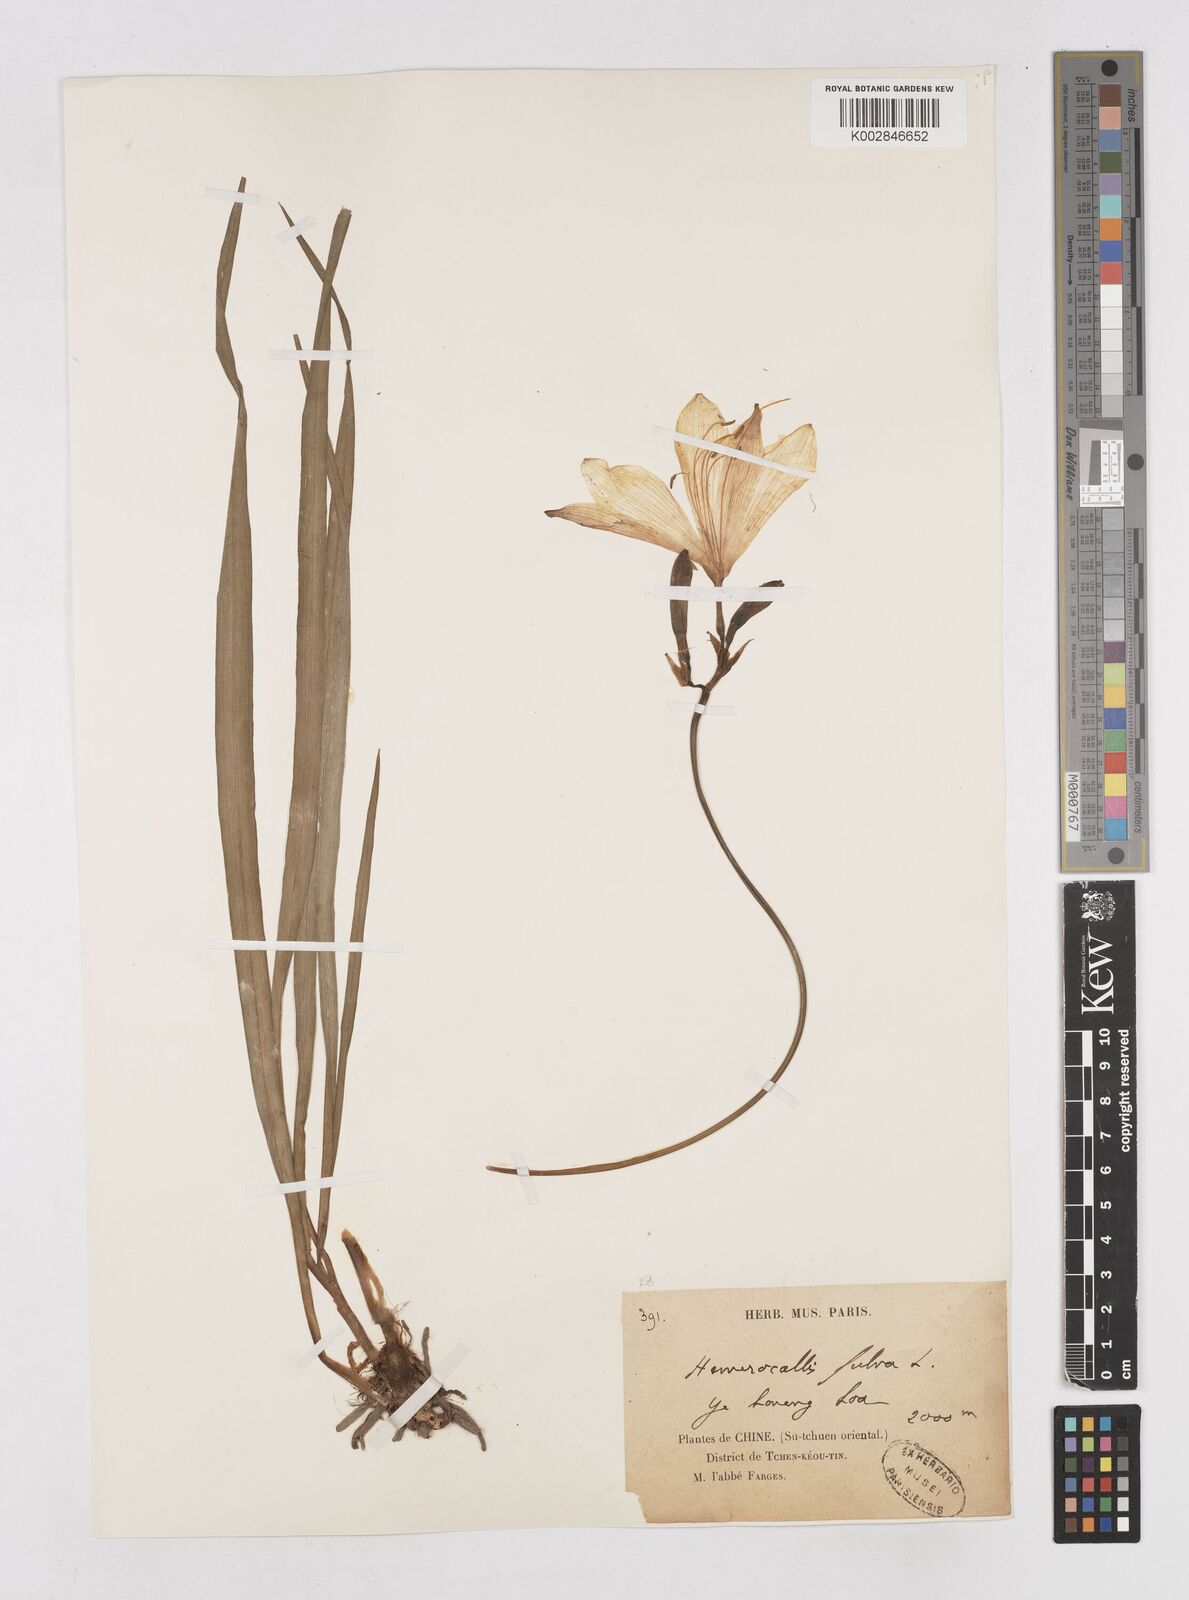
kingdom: Plantae
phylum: Tracheophyta
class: Liliopsida
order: Asparagales
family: Asphodelaceae
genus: Hemerocallis
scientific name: Hemerocallis fulva
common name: Orange day-lily
